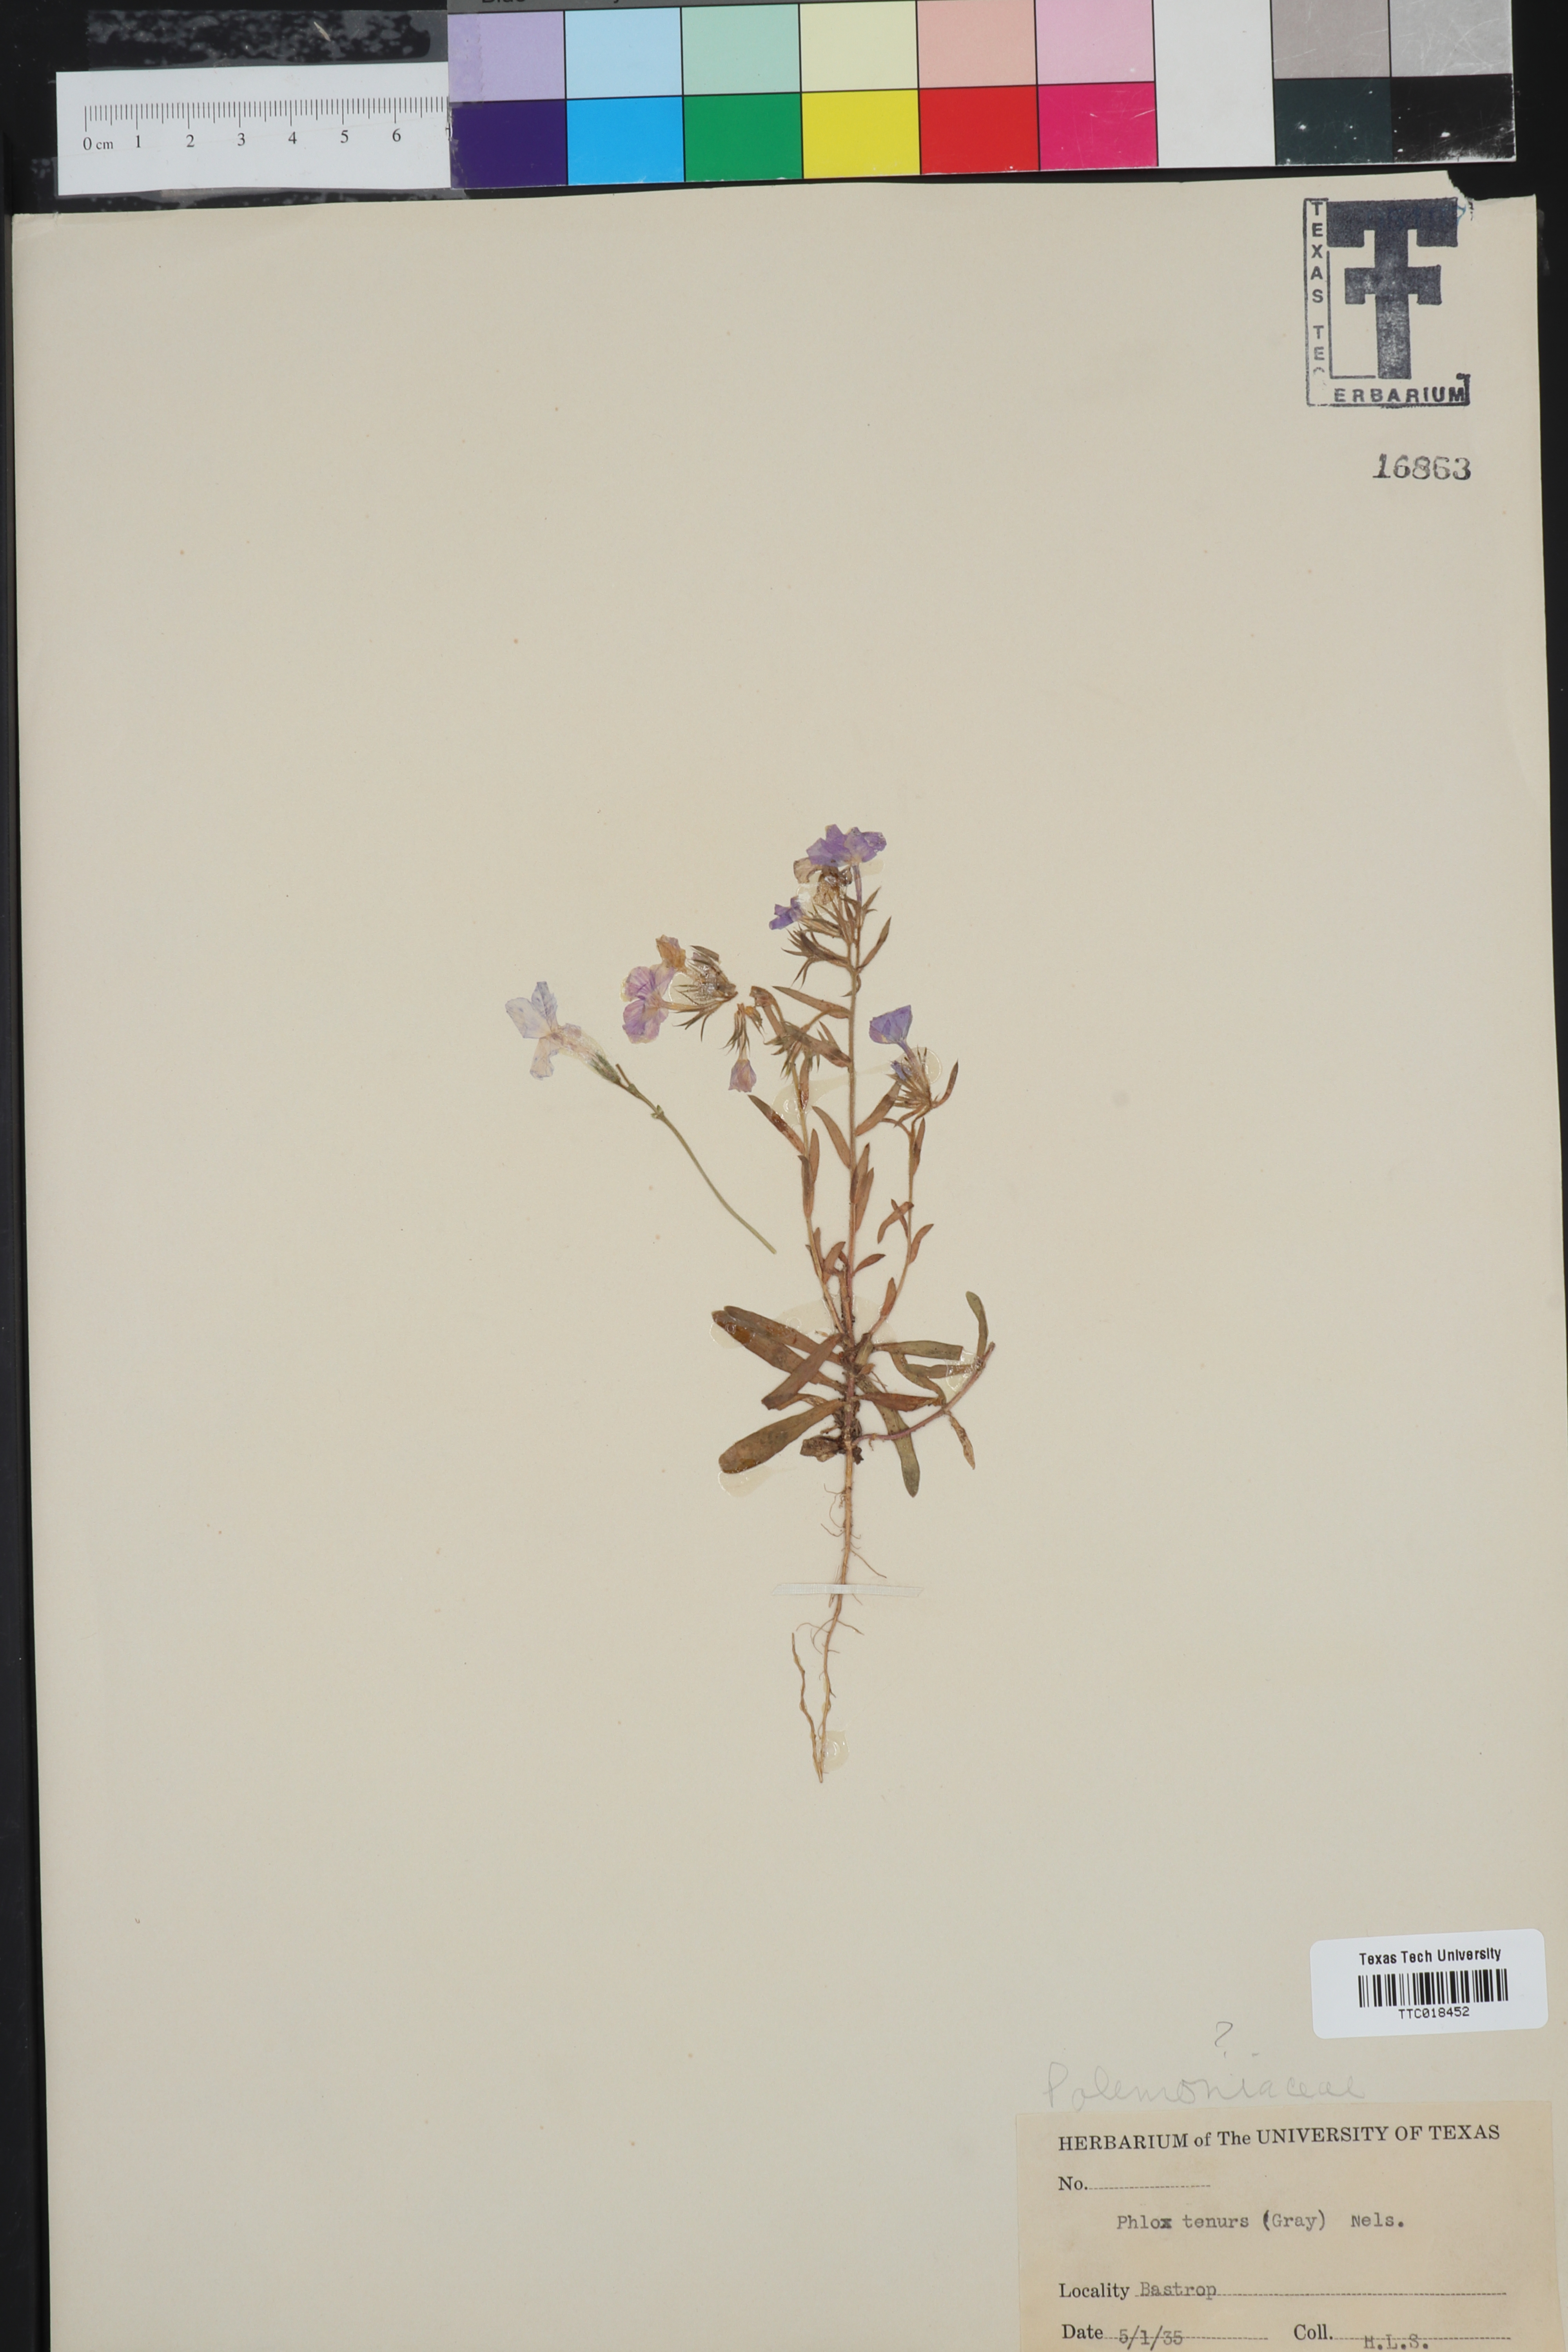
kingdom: Plantae
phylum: Tracheophyta
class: Magnoliopsida
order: Ericales
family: Polemoniaceae
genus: Phlox
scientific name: Phlox
